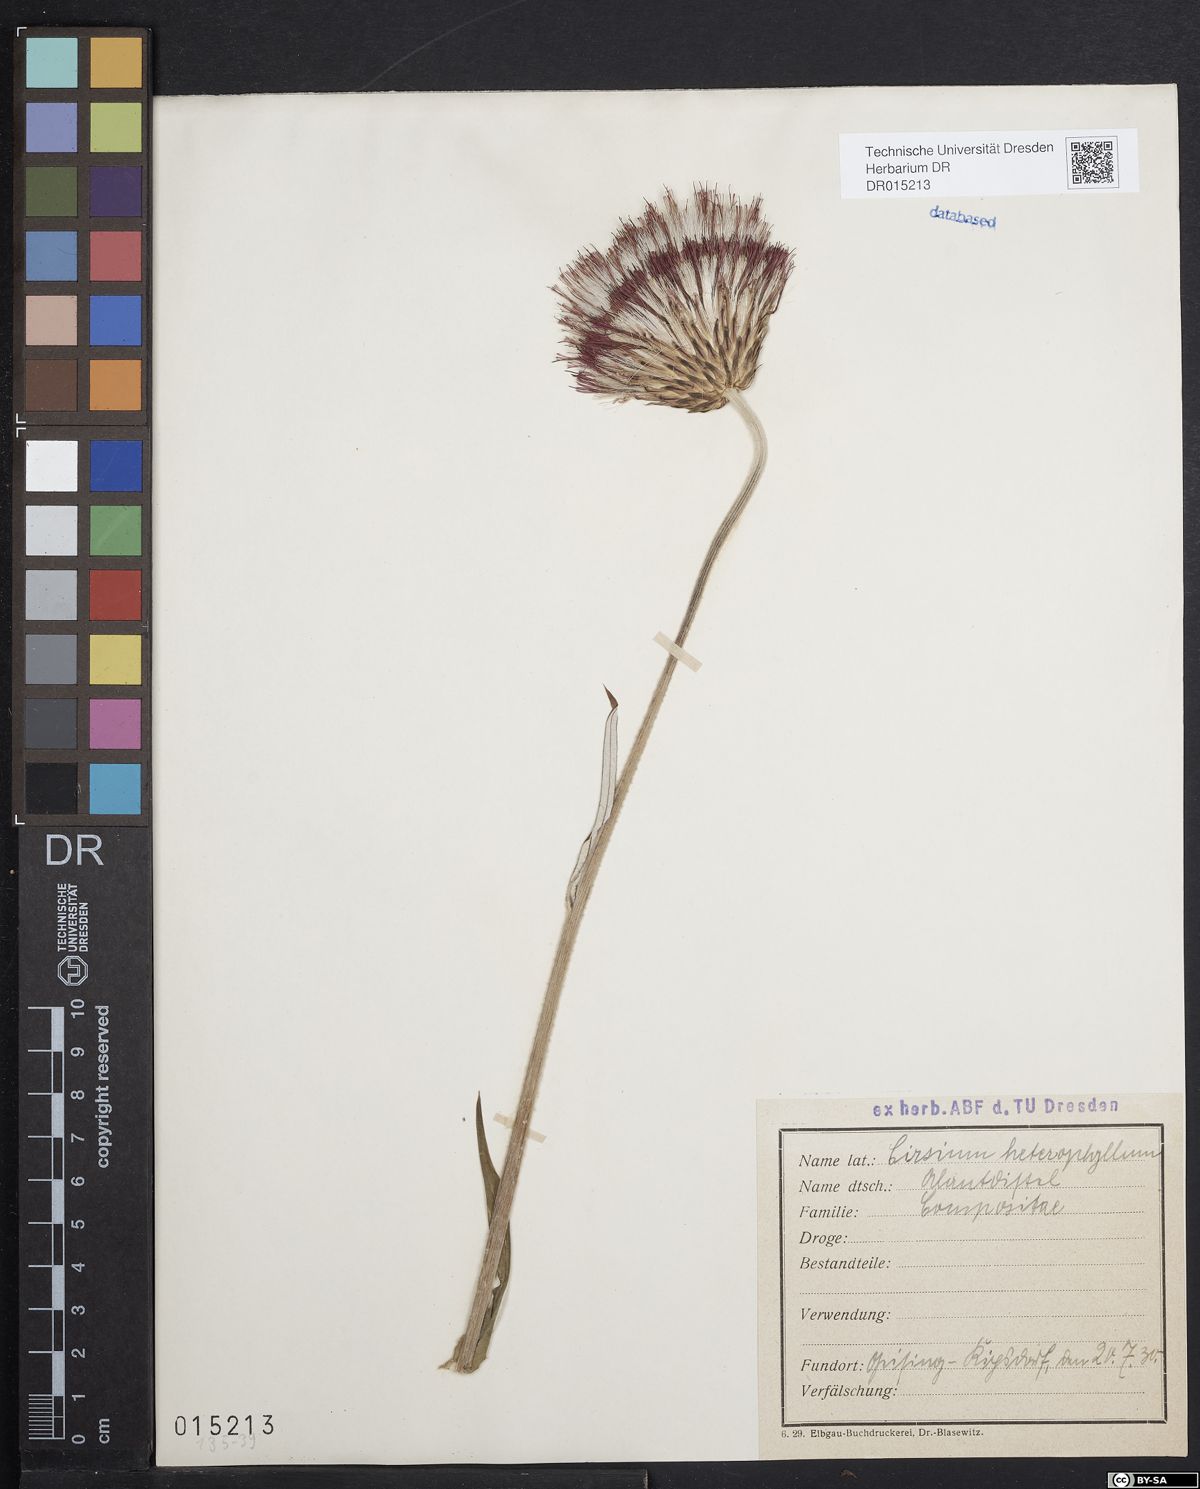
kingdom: Plantae
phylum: Tracheophyta
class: Magnoliopsida
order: Asterales
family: Asteraceae
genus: Cirsium
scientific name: Cirsium heterophyllum
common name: Melancholy thistle
